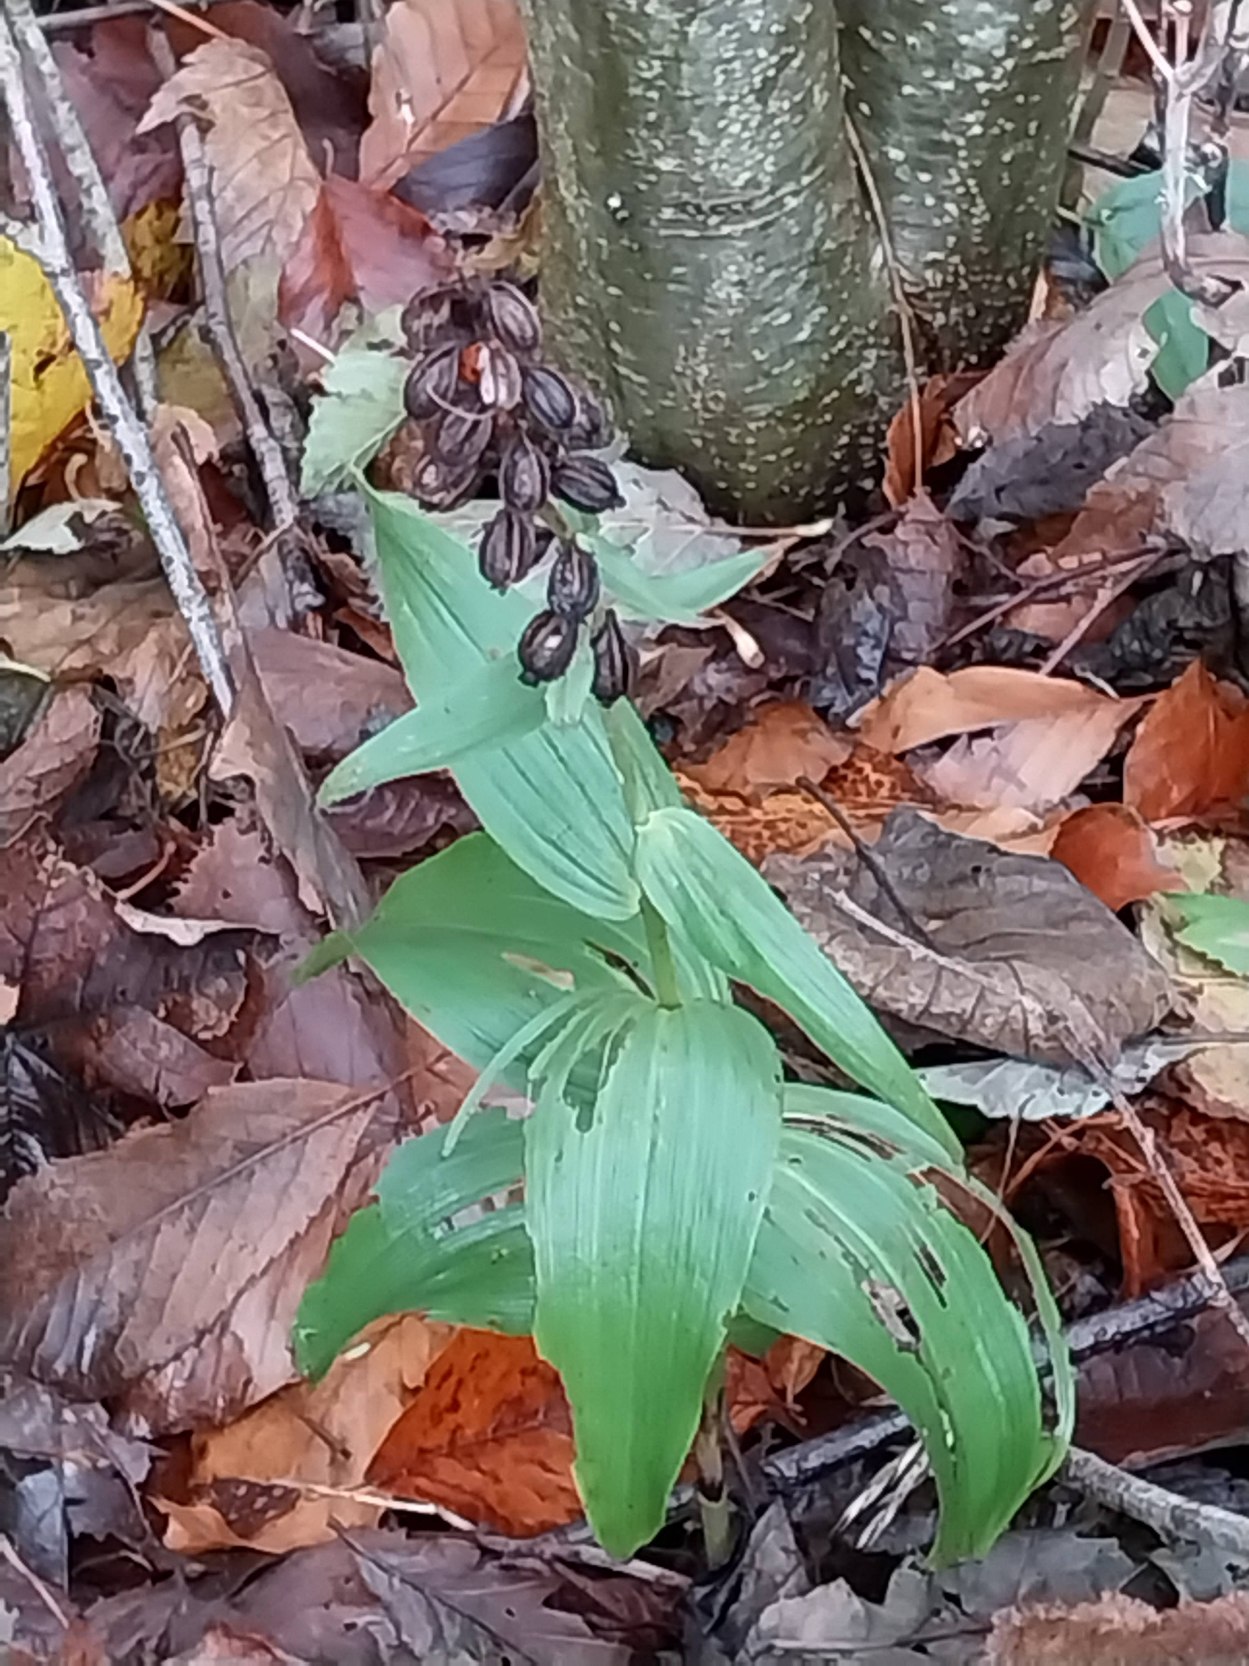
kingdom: Plantae
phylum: Tracheophyta
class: Liliopsida
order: Asparagales
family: Orchidaceae
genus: Epipactis
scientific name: Epipactis helleborine
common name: Skov-hullæbe
